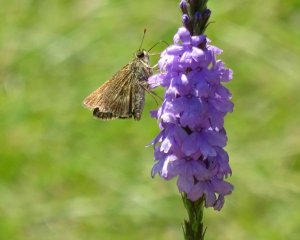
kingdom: Animalia
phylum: Arthropoda
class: Insecta
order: Lepidoptera
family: Hesperiidae
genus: Polites
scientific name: Polites
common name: Long Dash Skipper
